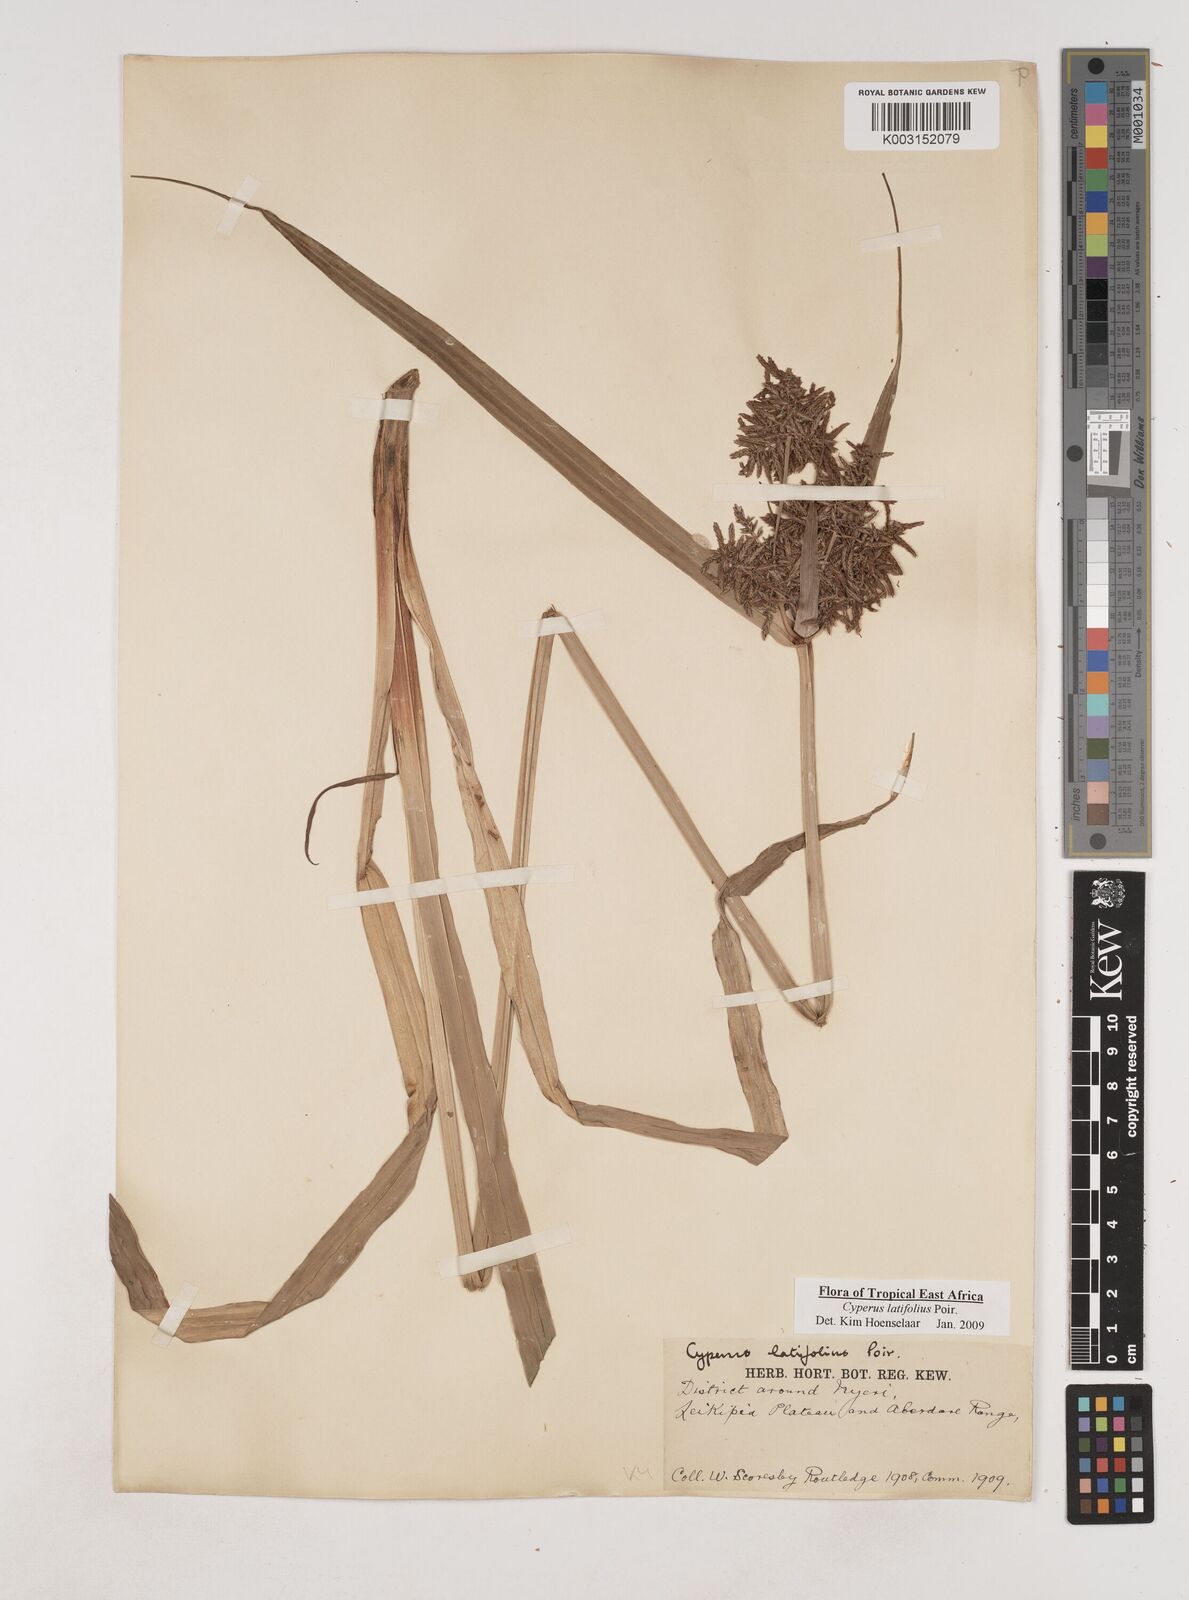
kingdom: Plantae
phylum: Tracheophyta
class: Liliopsida
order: Poales
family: Cyperaceae
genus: Cyperus
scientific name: Cyperus latifolius
